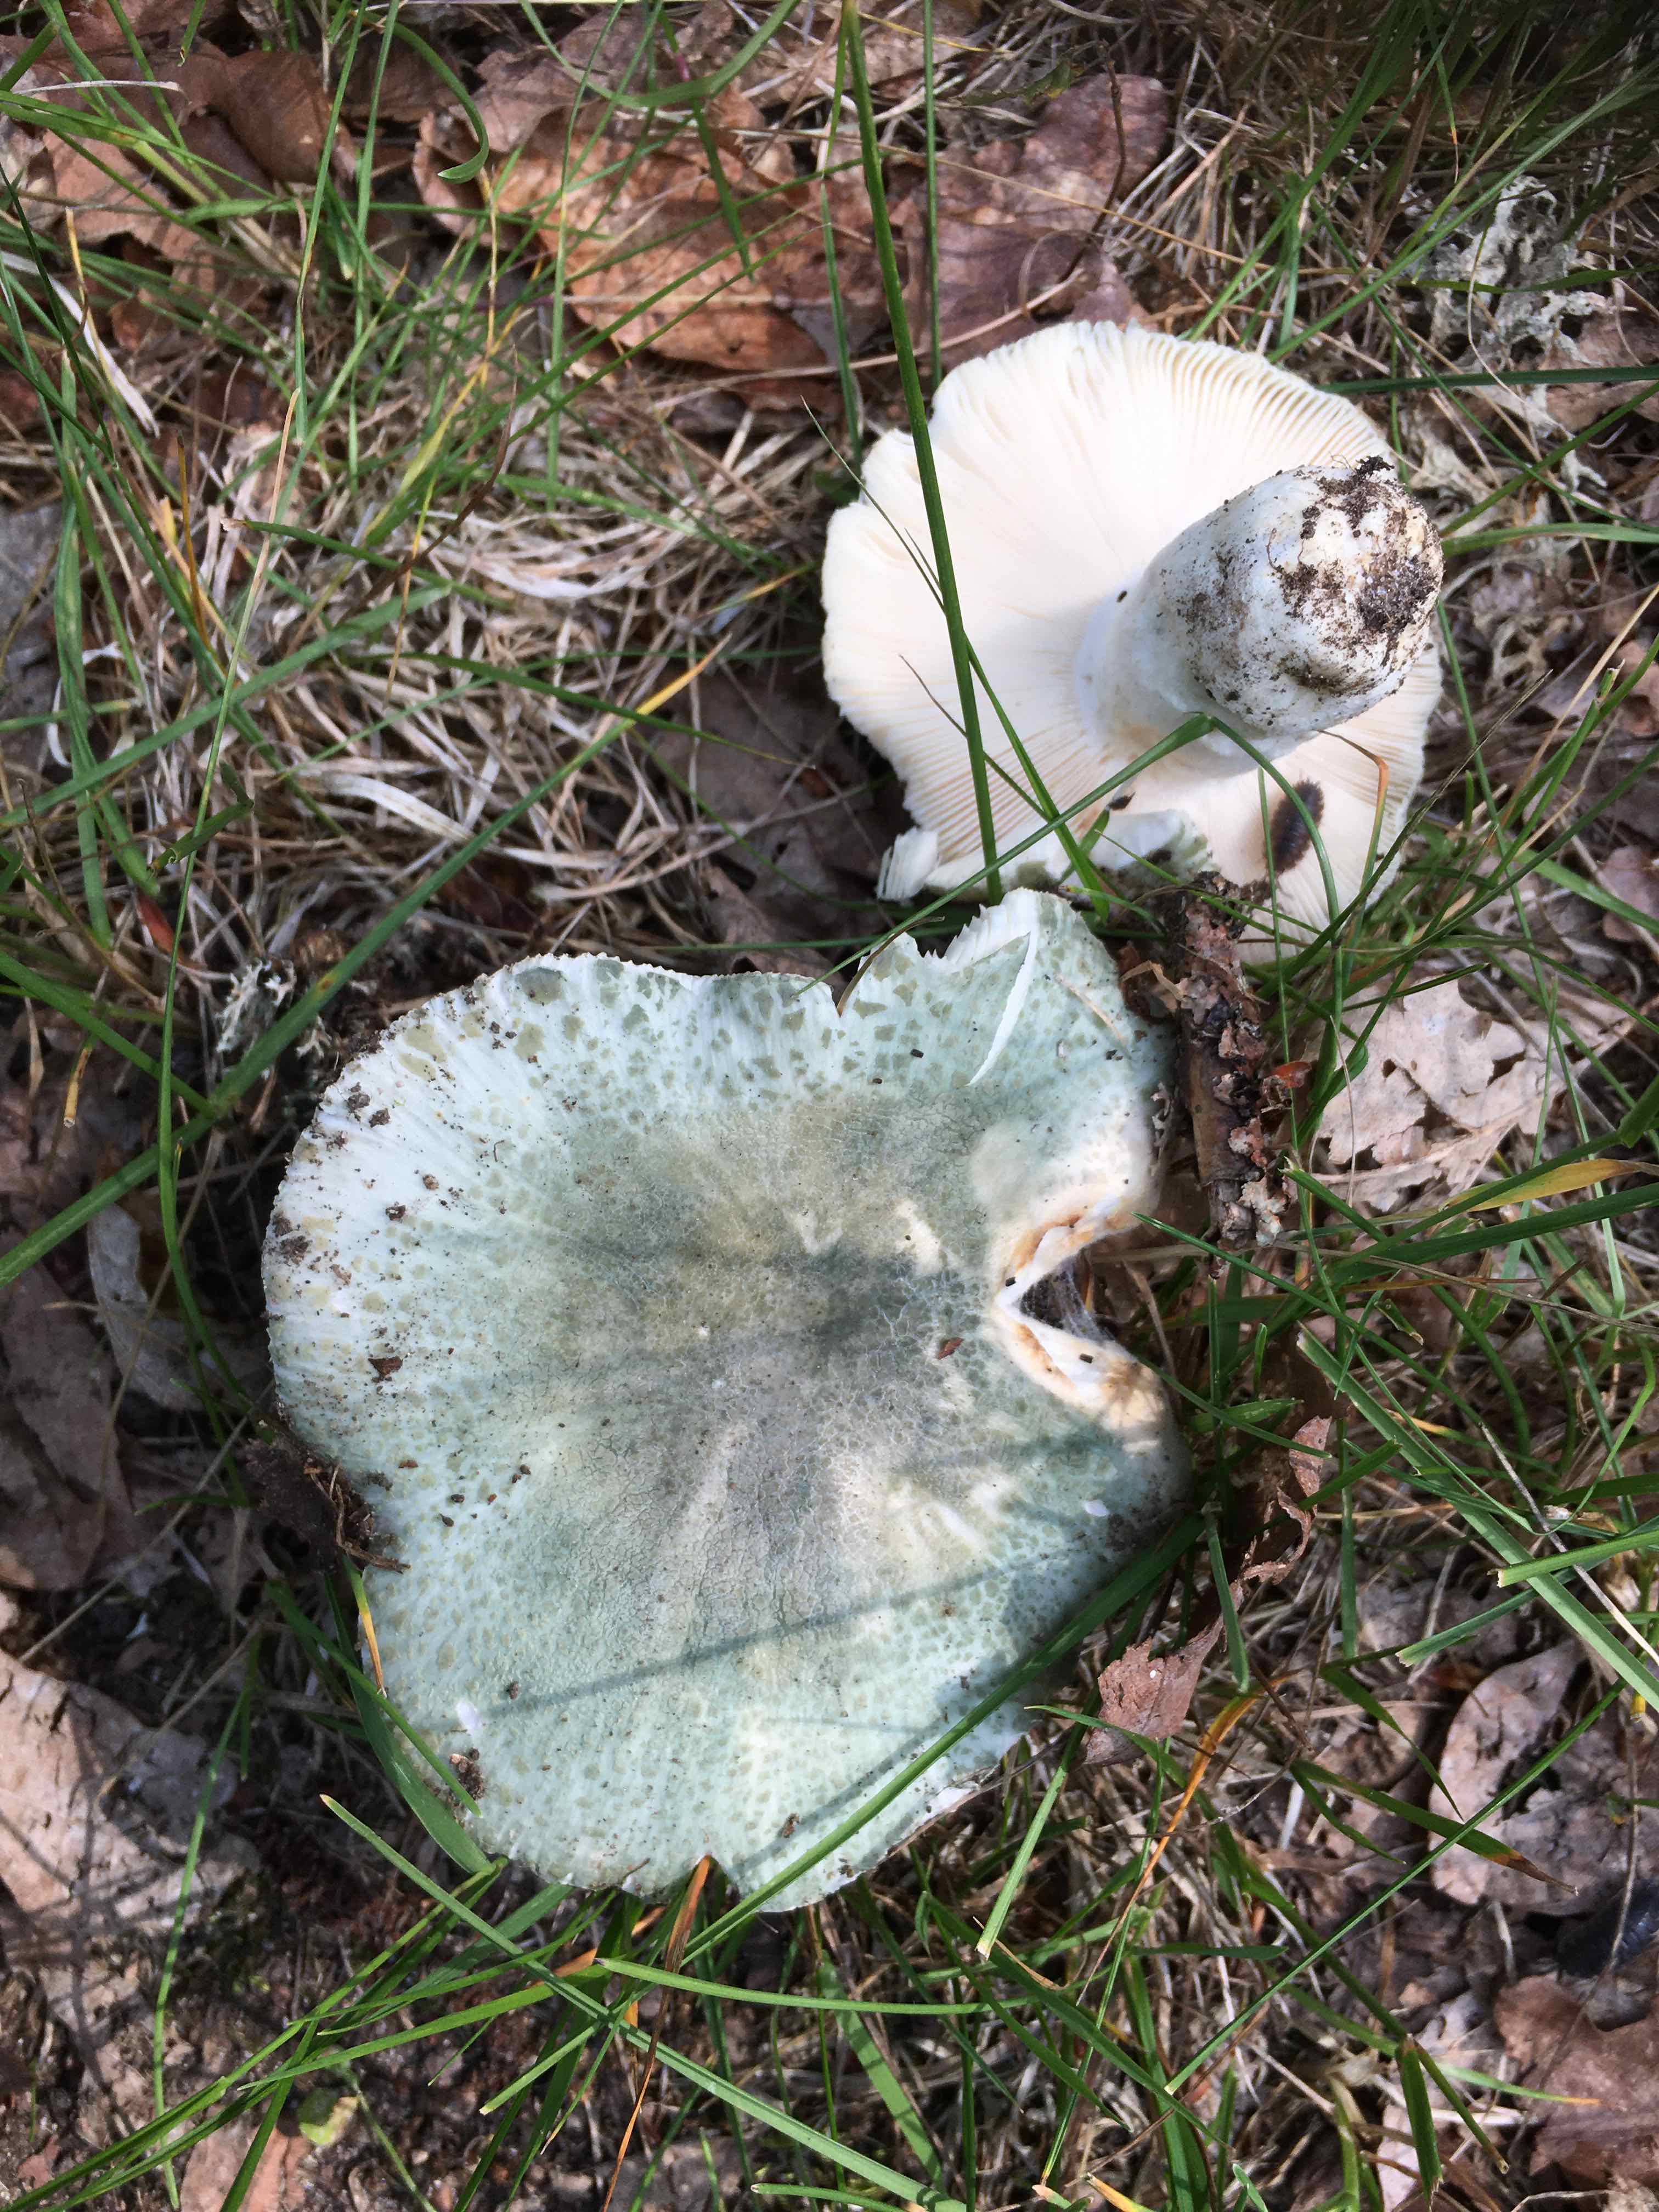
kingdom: Fungi
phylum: Basidiomycota
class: Agaricomycetes
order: Russulales
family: Russulaceae
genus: Russula
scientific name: Russula virescens
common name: spanskgrøn skørhat
